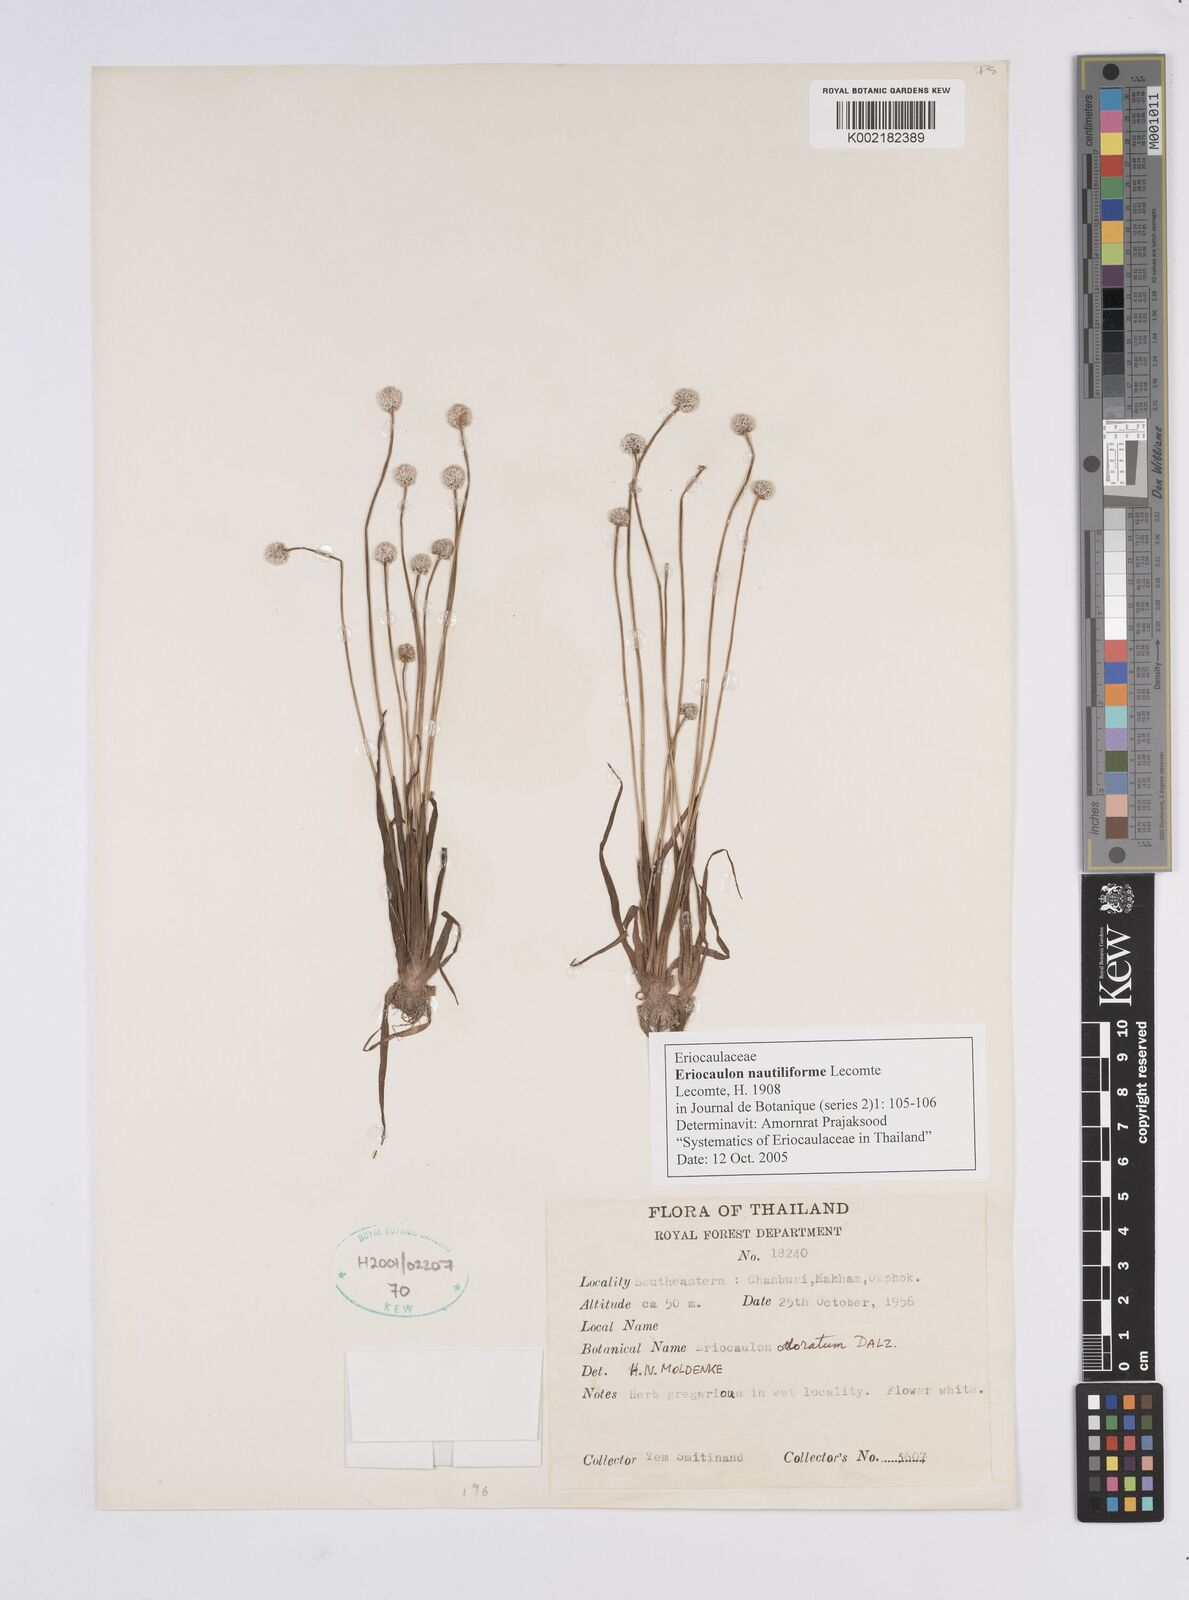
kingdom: Plantae
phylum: Tracheophyta
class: Liliopsida
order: Poales
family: Eriocaulaceae
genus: Eriocaulon
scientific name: Eriocaulon nautiliforme
